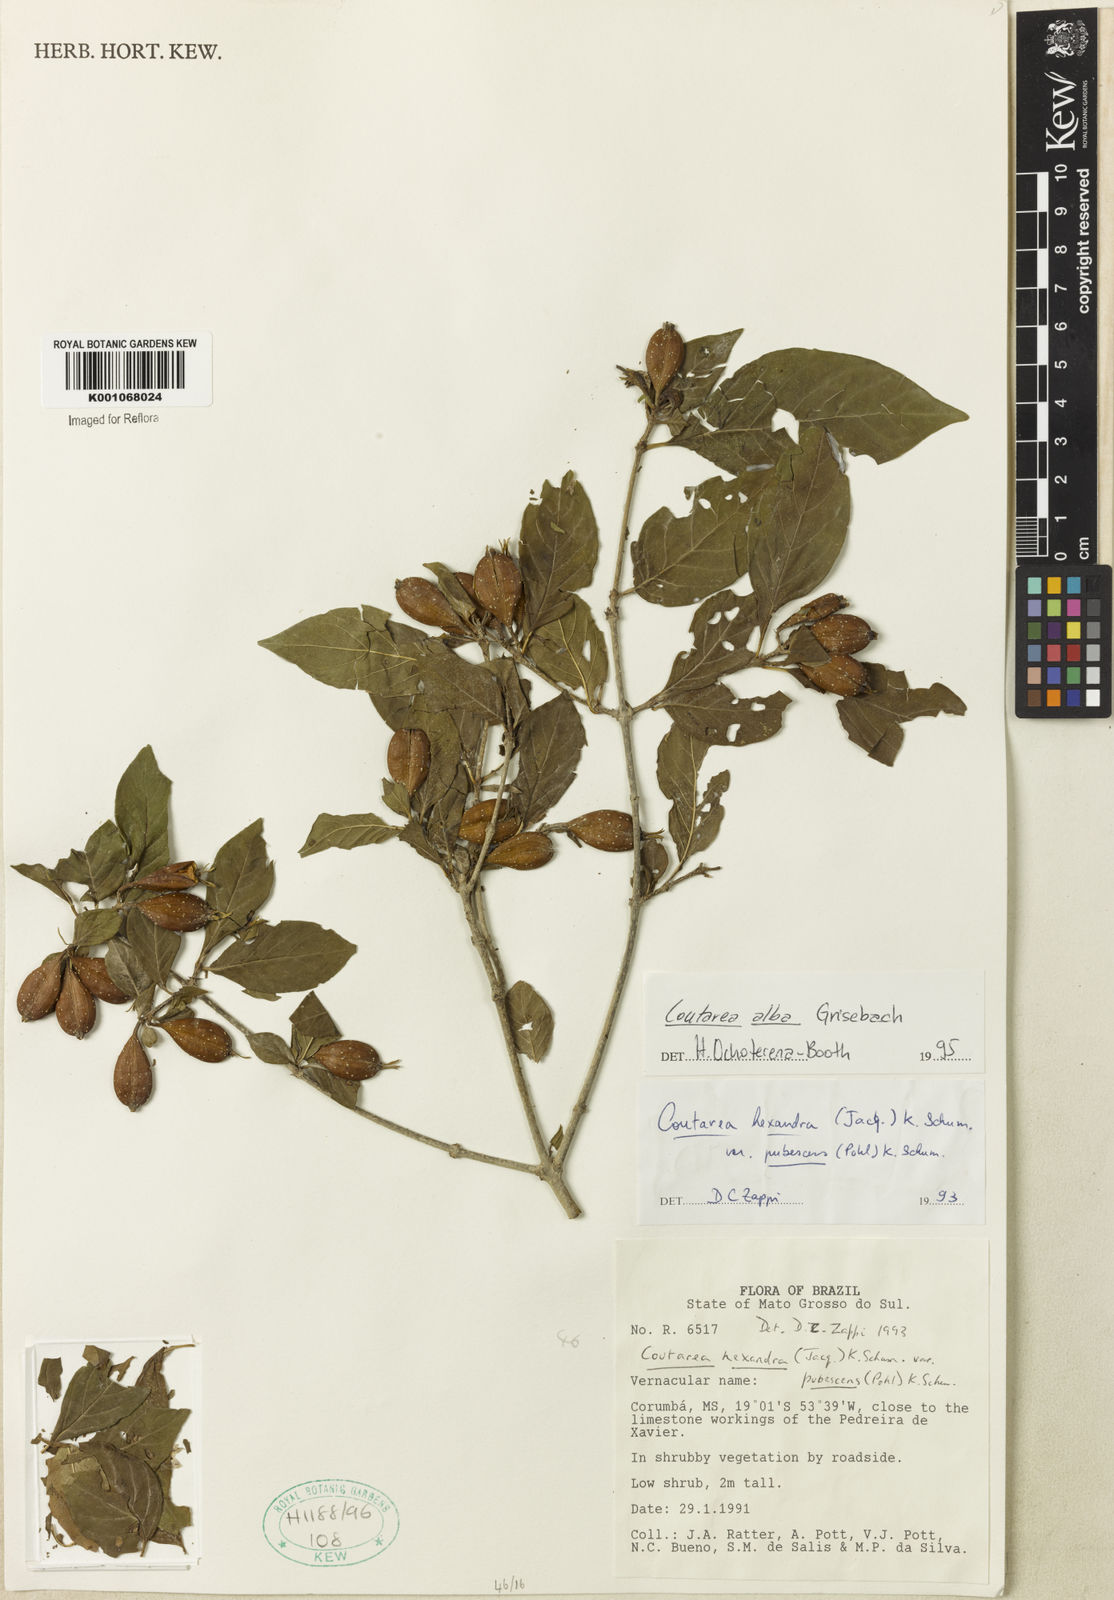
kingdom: Plantae
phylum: Tracheophyta
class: Magnoliopsida
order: Gentianales
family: Rubiaceae
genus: Coutarea
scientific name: Coutarea alba
